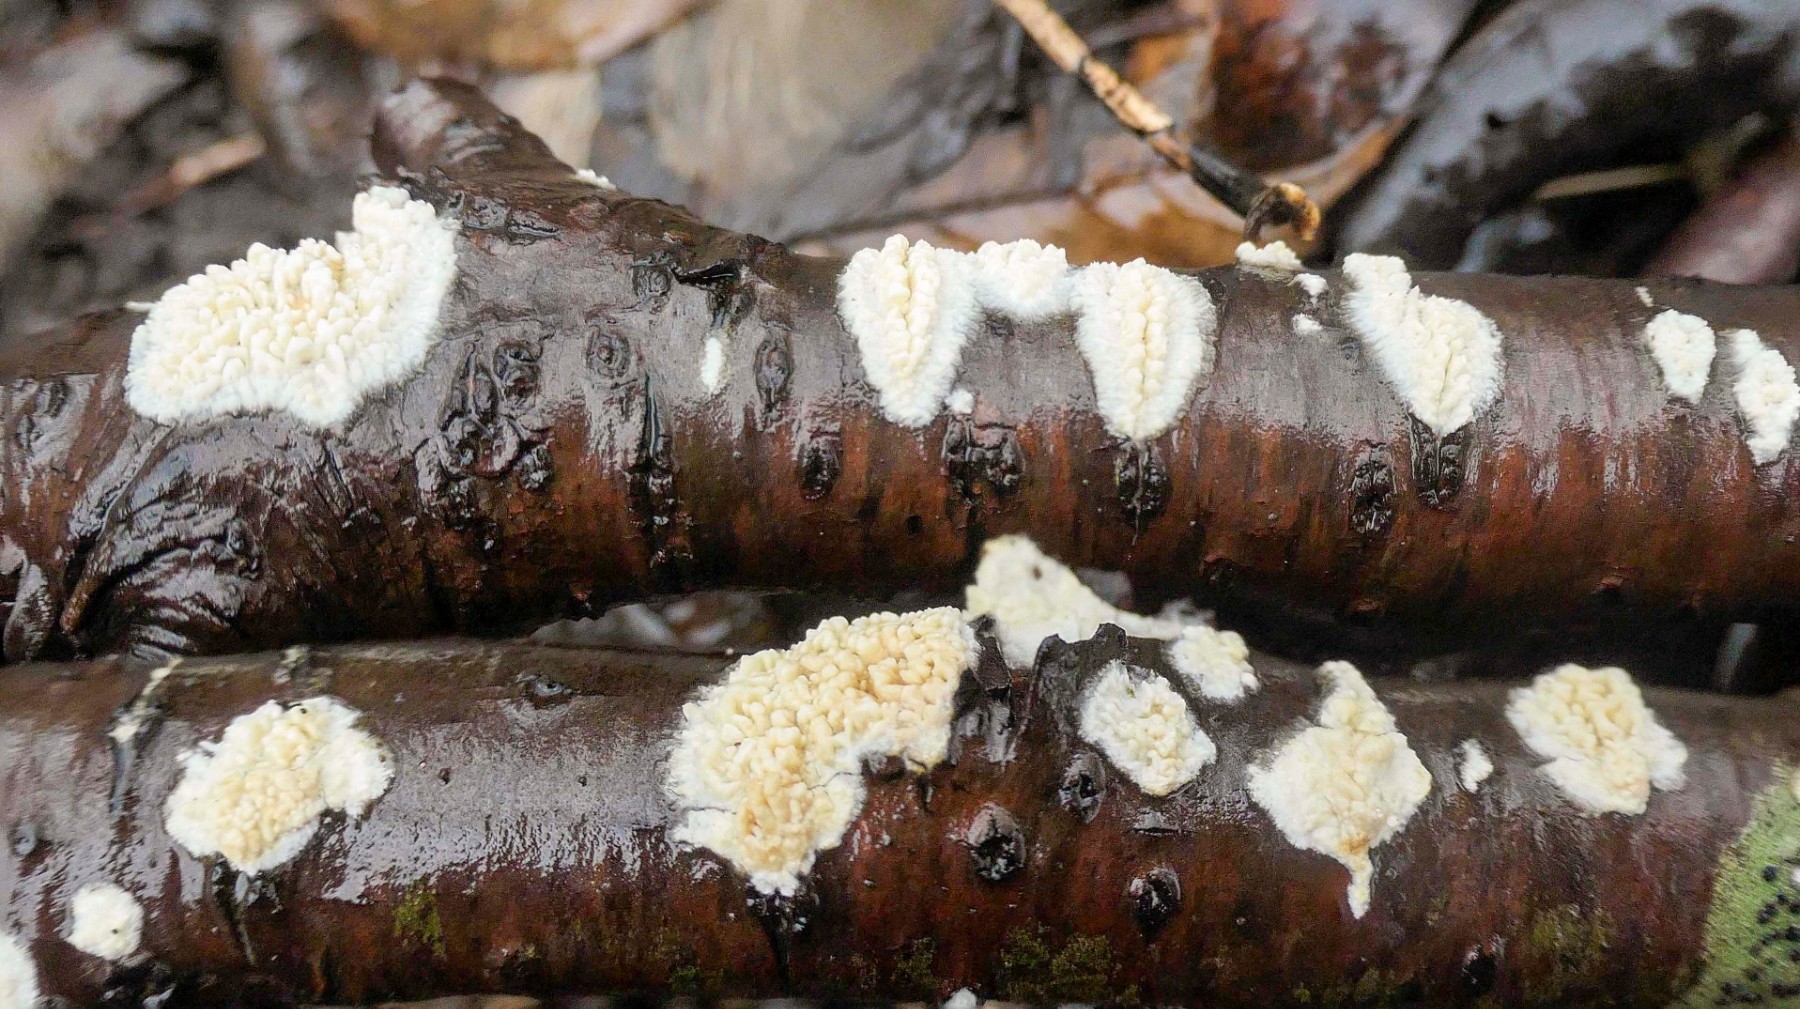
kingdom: Fungi
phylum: Basidiomycota
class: Agaricomycetes
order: Hymenochaetales
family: Schizoporaceae
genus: Xylodon
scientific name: Xylodon radula
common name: grovtandet kalkskind
